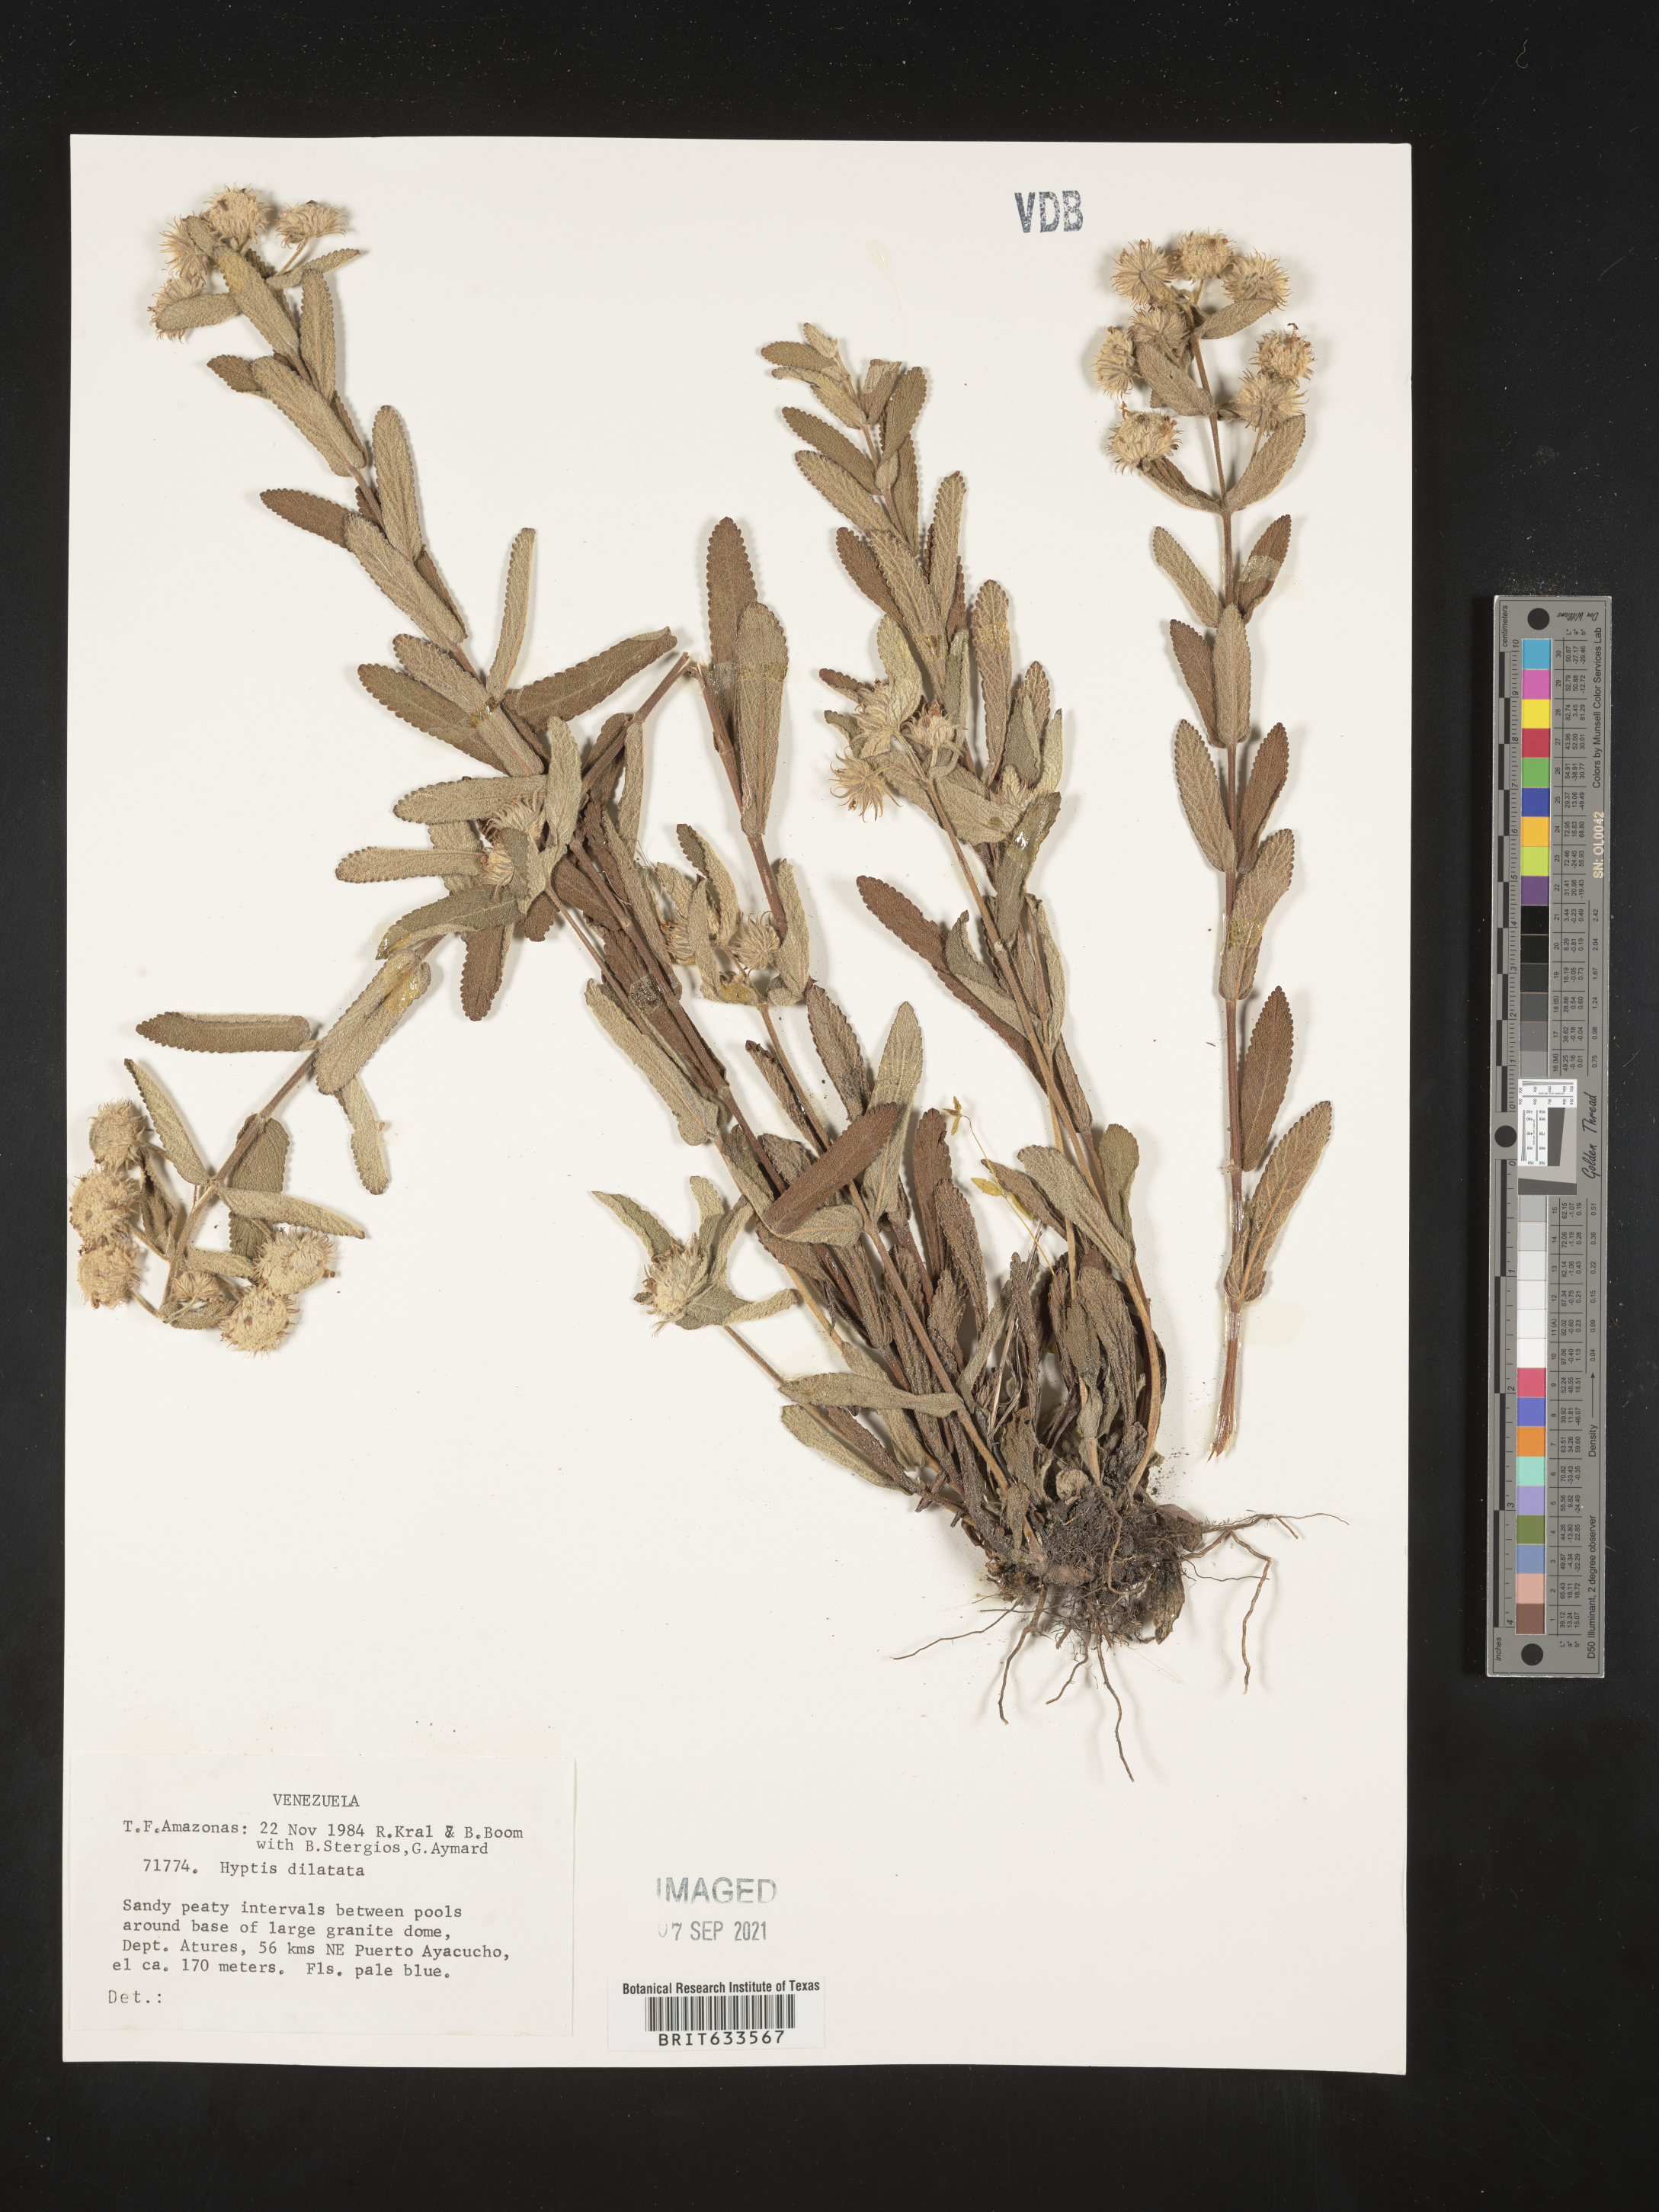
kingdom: Plantae
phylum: Tracheophyta
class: Magnoliopsida
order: Lamiales
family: Lamiaceae
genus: Hyptis
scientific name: Hyptis
